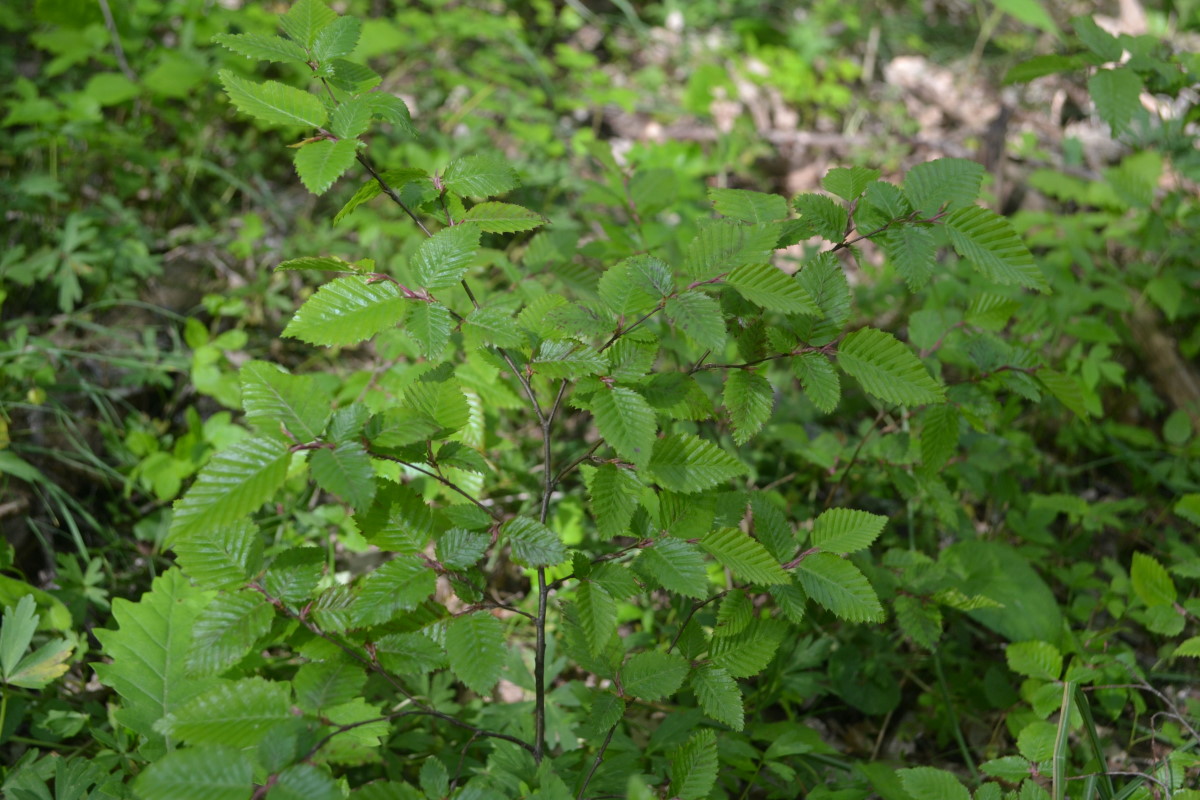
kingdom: Plantae
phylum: Tracheophyta
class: Magnoliopsida
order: Fagales
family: Betulaceae
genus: Carpinus
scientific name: Carpinus orientalis
